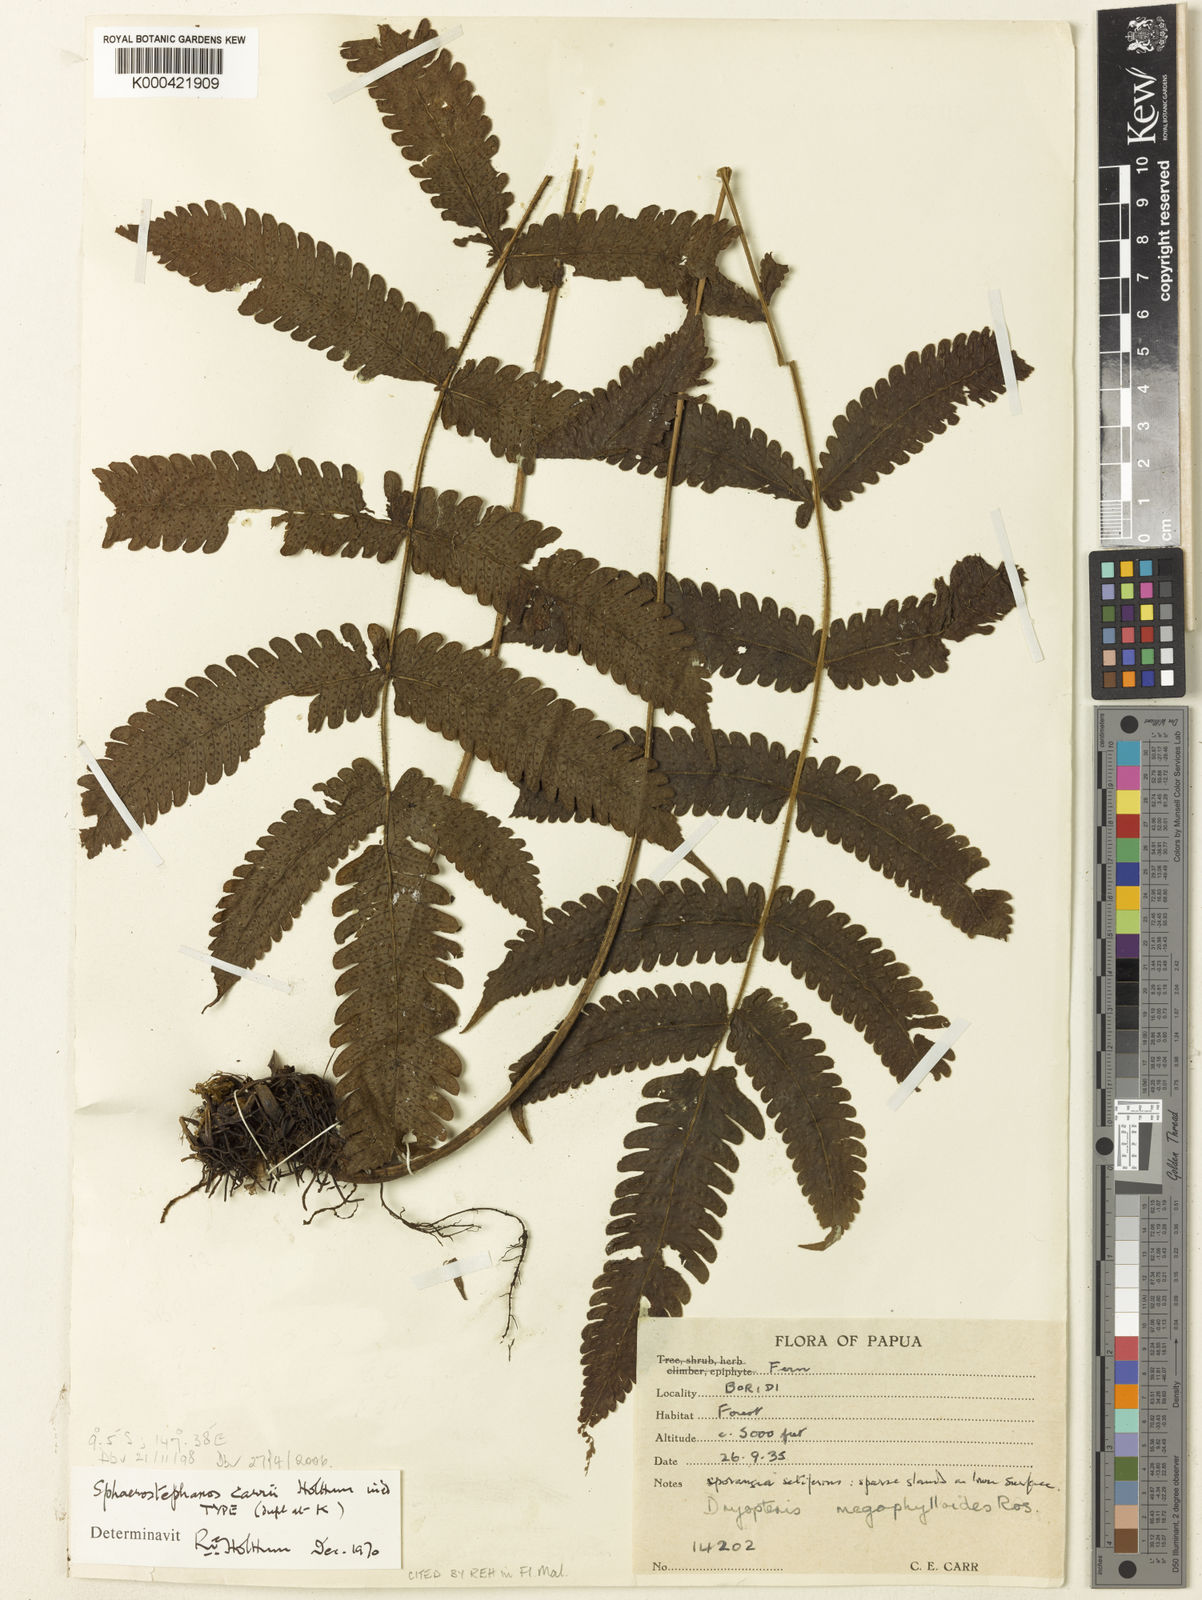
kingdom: Plantae
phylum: Tracheophyta
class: Polypodiopsida
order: Polypodiales
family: Thelypteridaceae
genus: Sphaerostephanos
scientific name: Sphaerostephanos carrii
